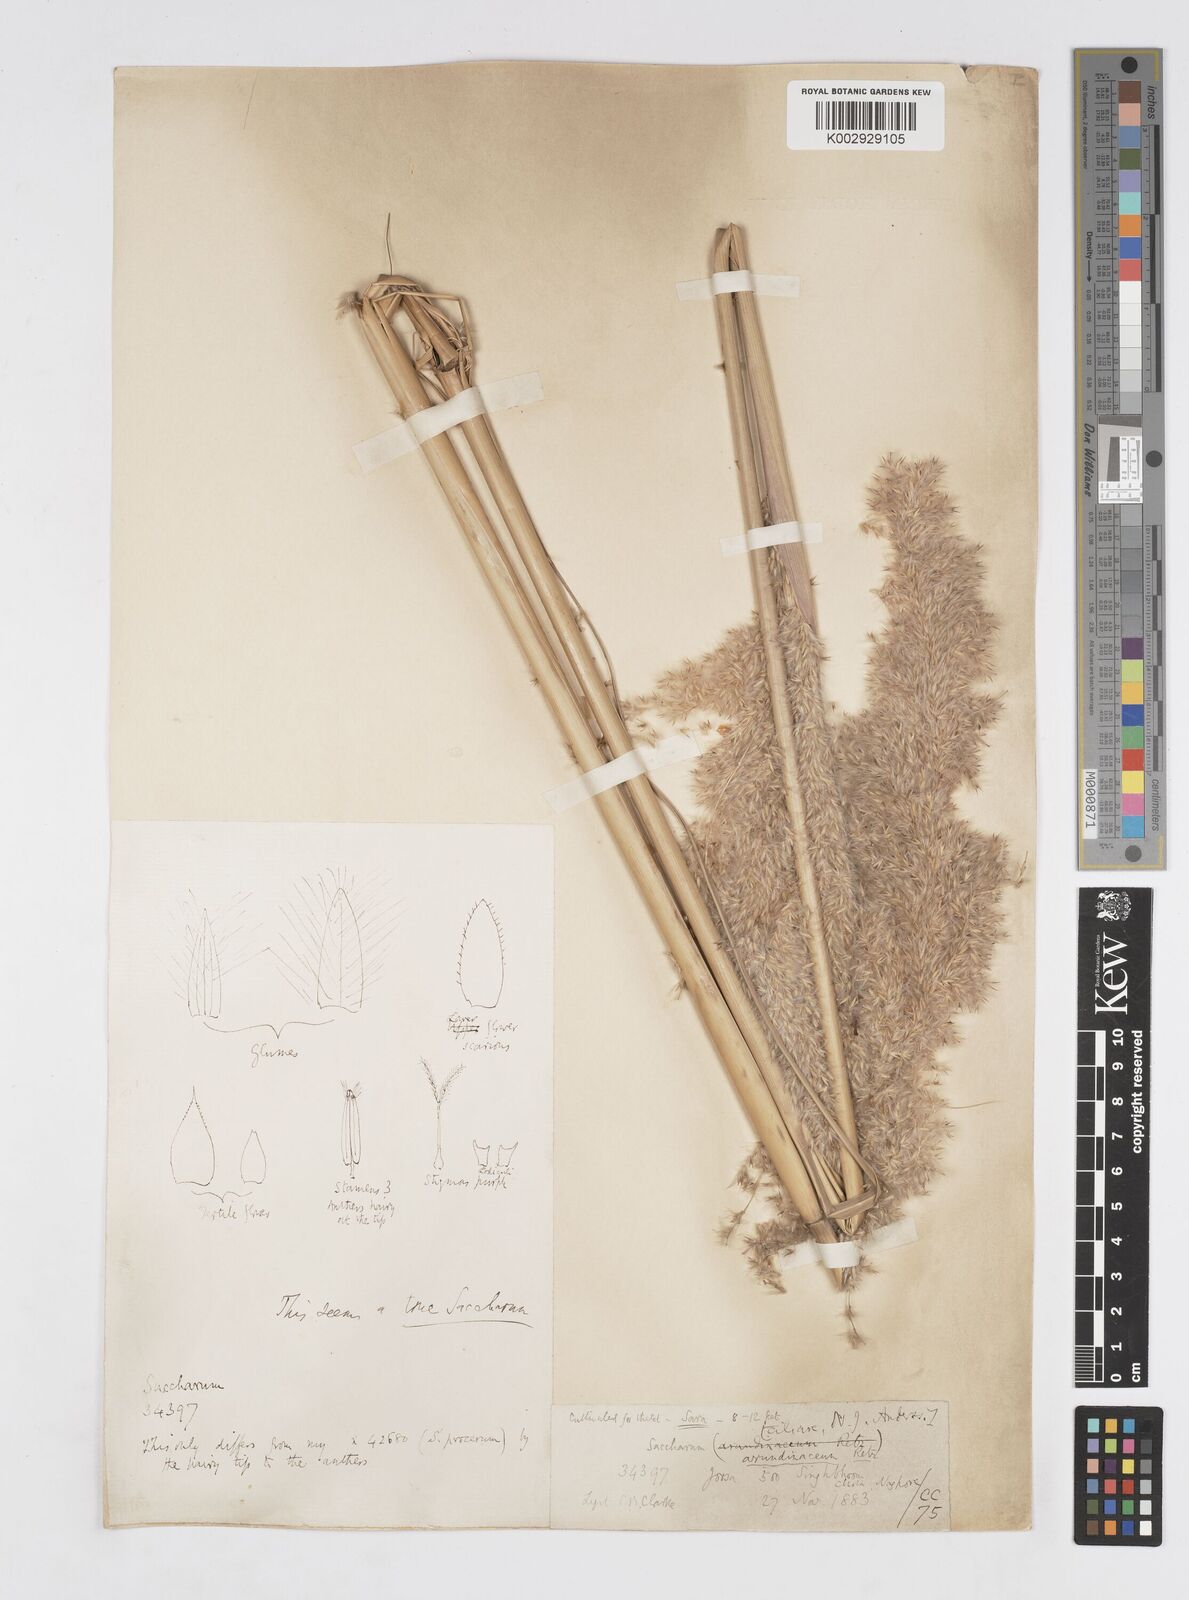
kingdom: Plantae
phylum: Tracheophyta
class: Liliopsida
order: Poales
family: Poaceae
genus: Saccharum
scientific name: Saccharum
